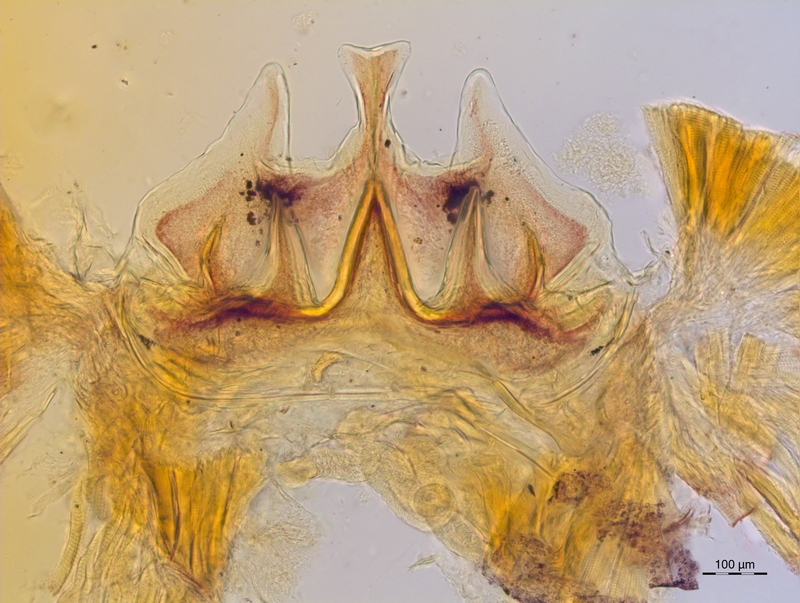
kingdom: Animalia
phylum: Arthropoda
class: Diplopoda
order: Chordeumatida
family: Craspedosomatidae
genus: Craspedosoma
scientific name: Craspedosoma rawlinsii
